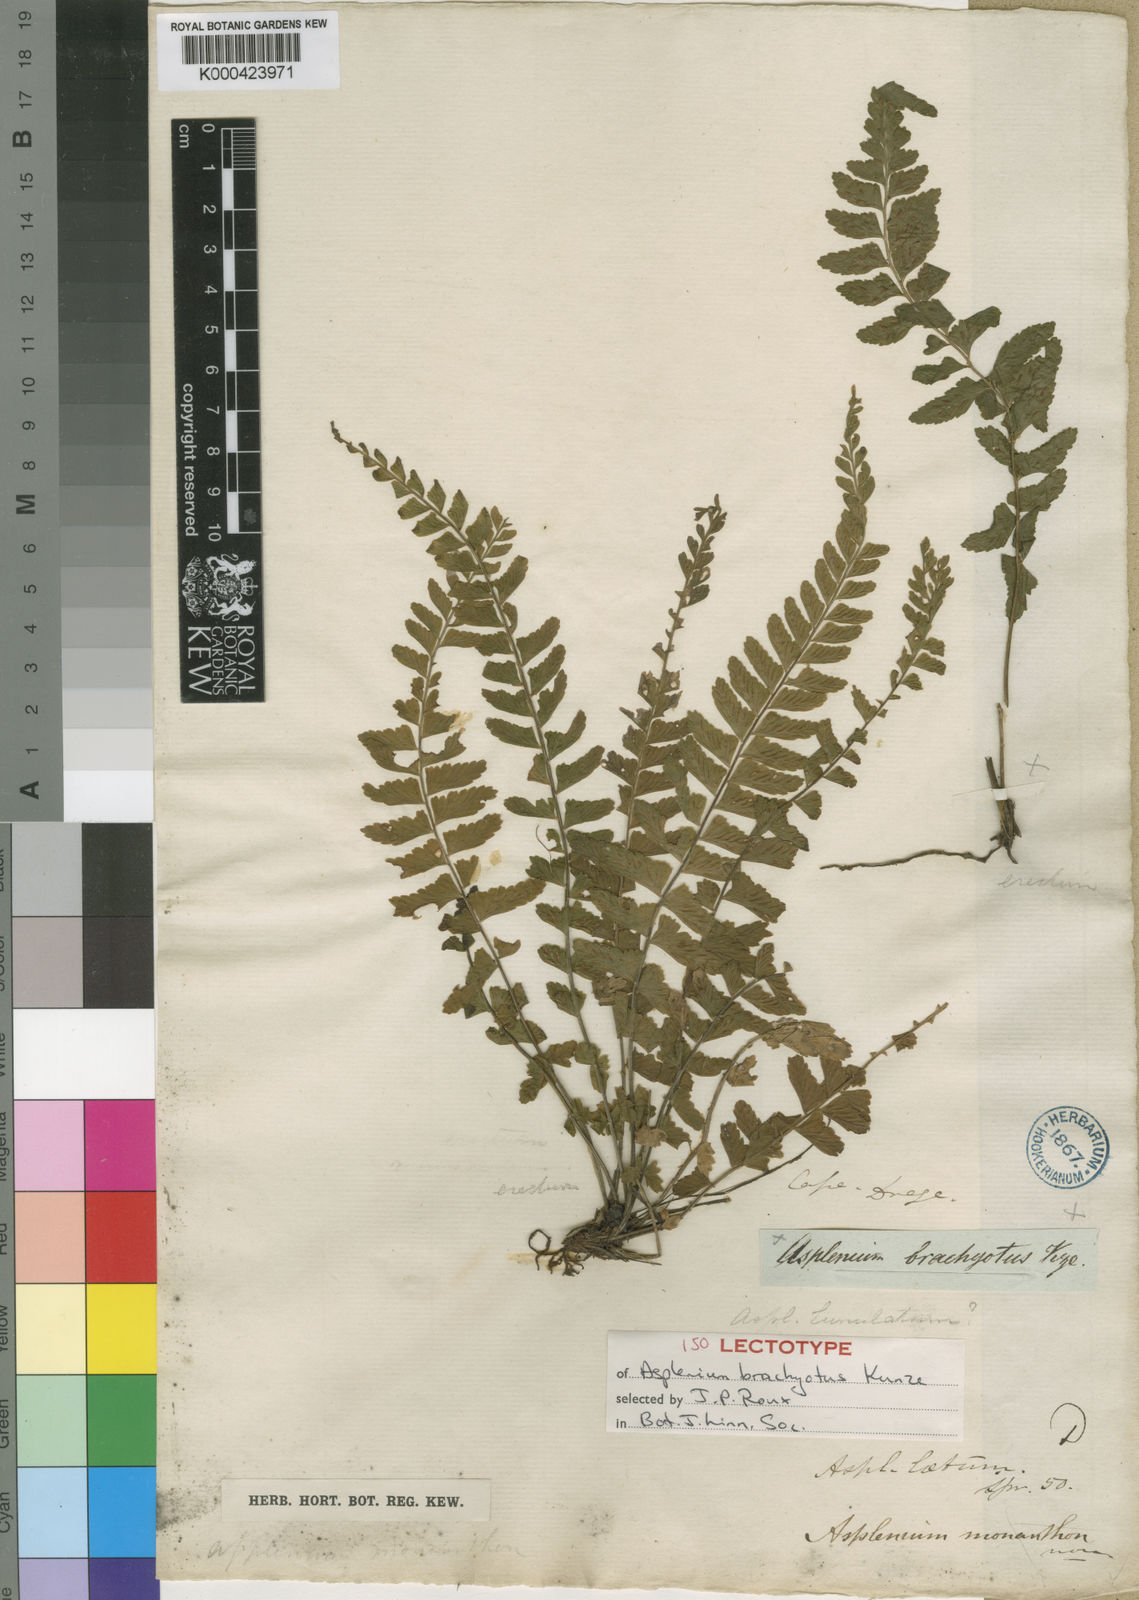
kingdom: Plantae
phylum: Tracheophyta
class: Polypodiopsida
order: Polypodiales
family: Aspleniaceae
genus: Asplenium
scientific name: Asplenium inaequilaterale
